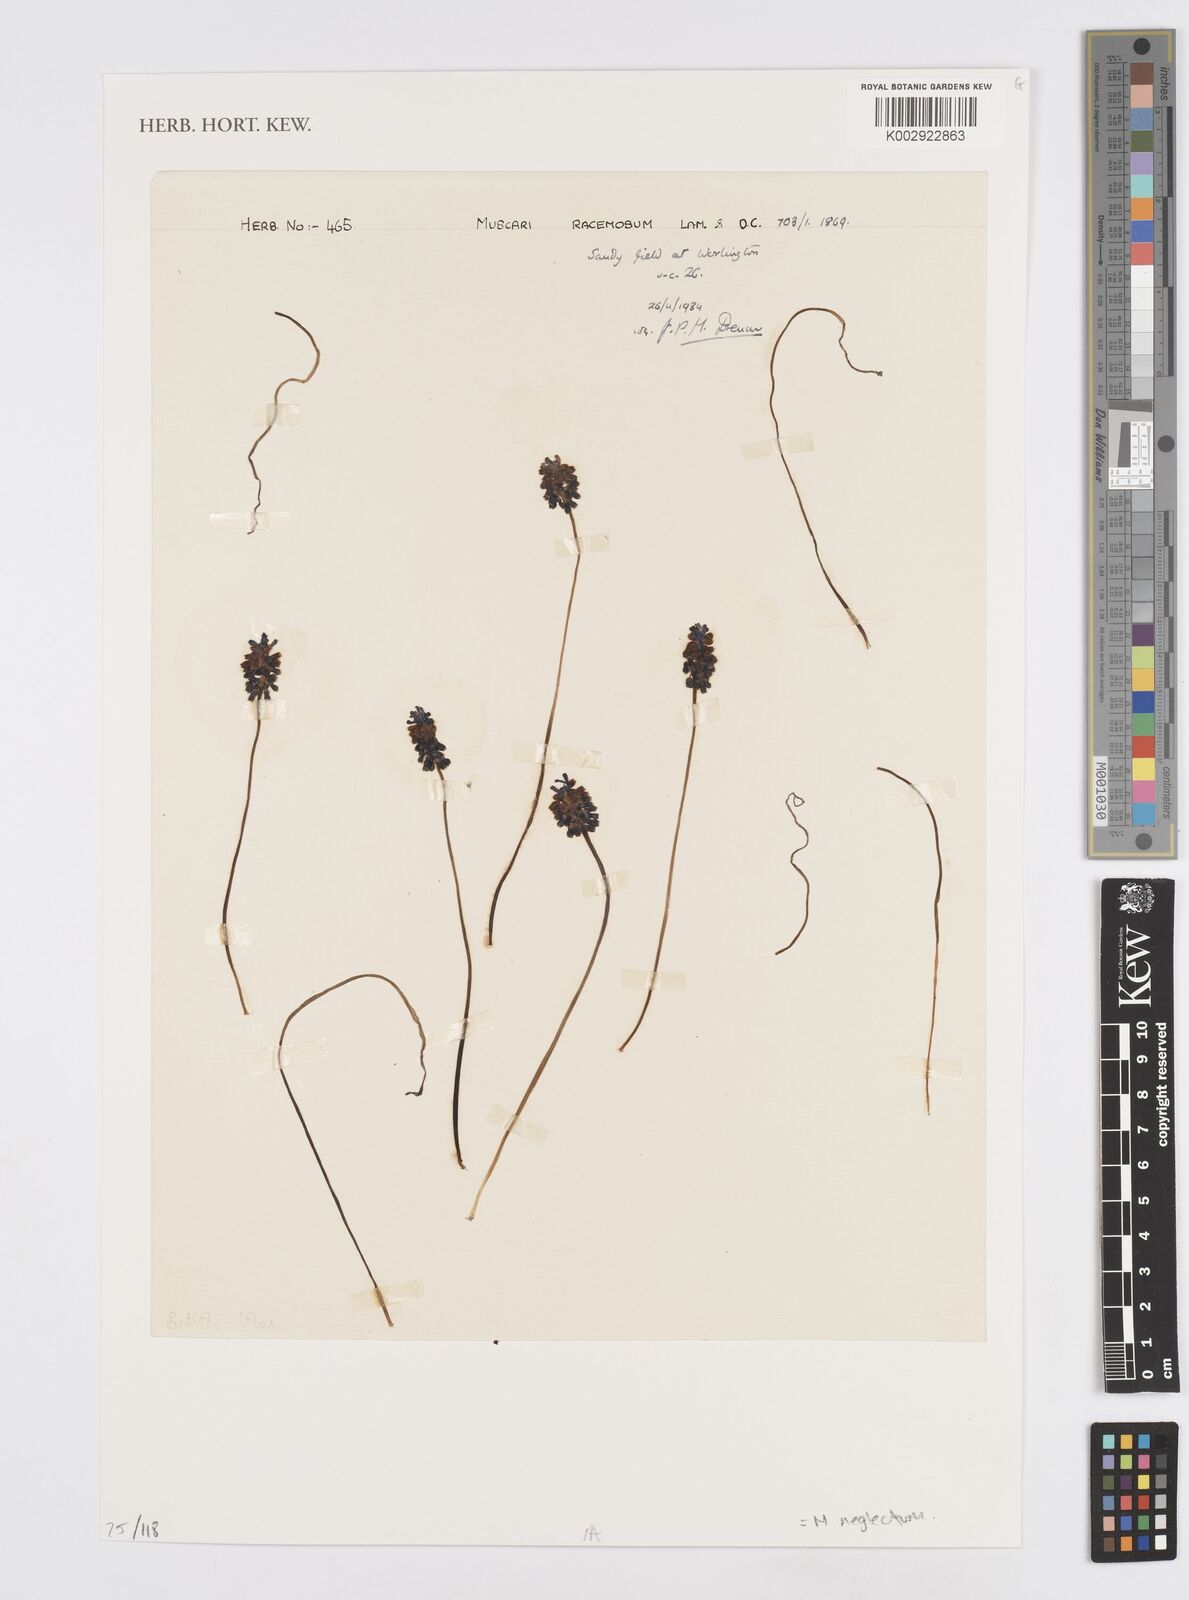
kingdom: Plantae
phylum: Tracheophyta
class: Liliopsida
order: Asparagales
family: Asparagaceae
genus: Muscari
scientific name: Muscari neglectum
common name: Grape-hyacinth
